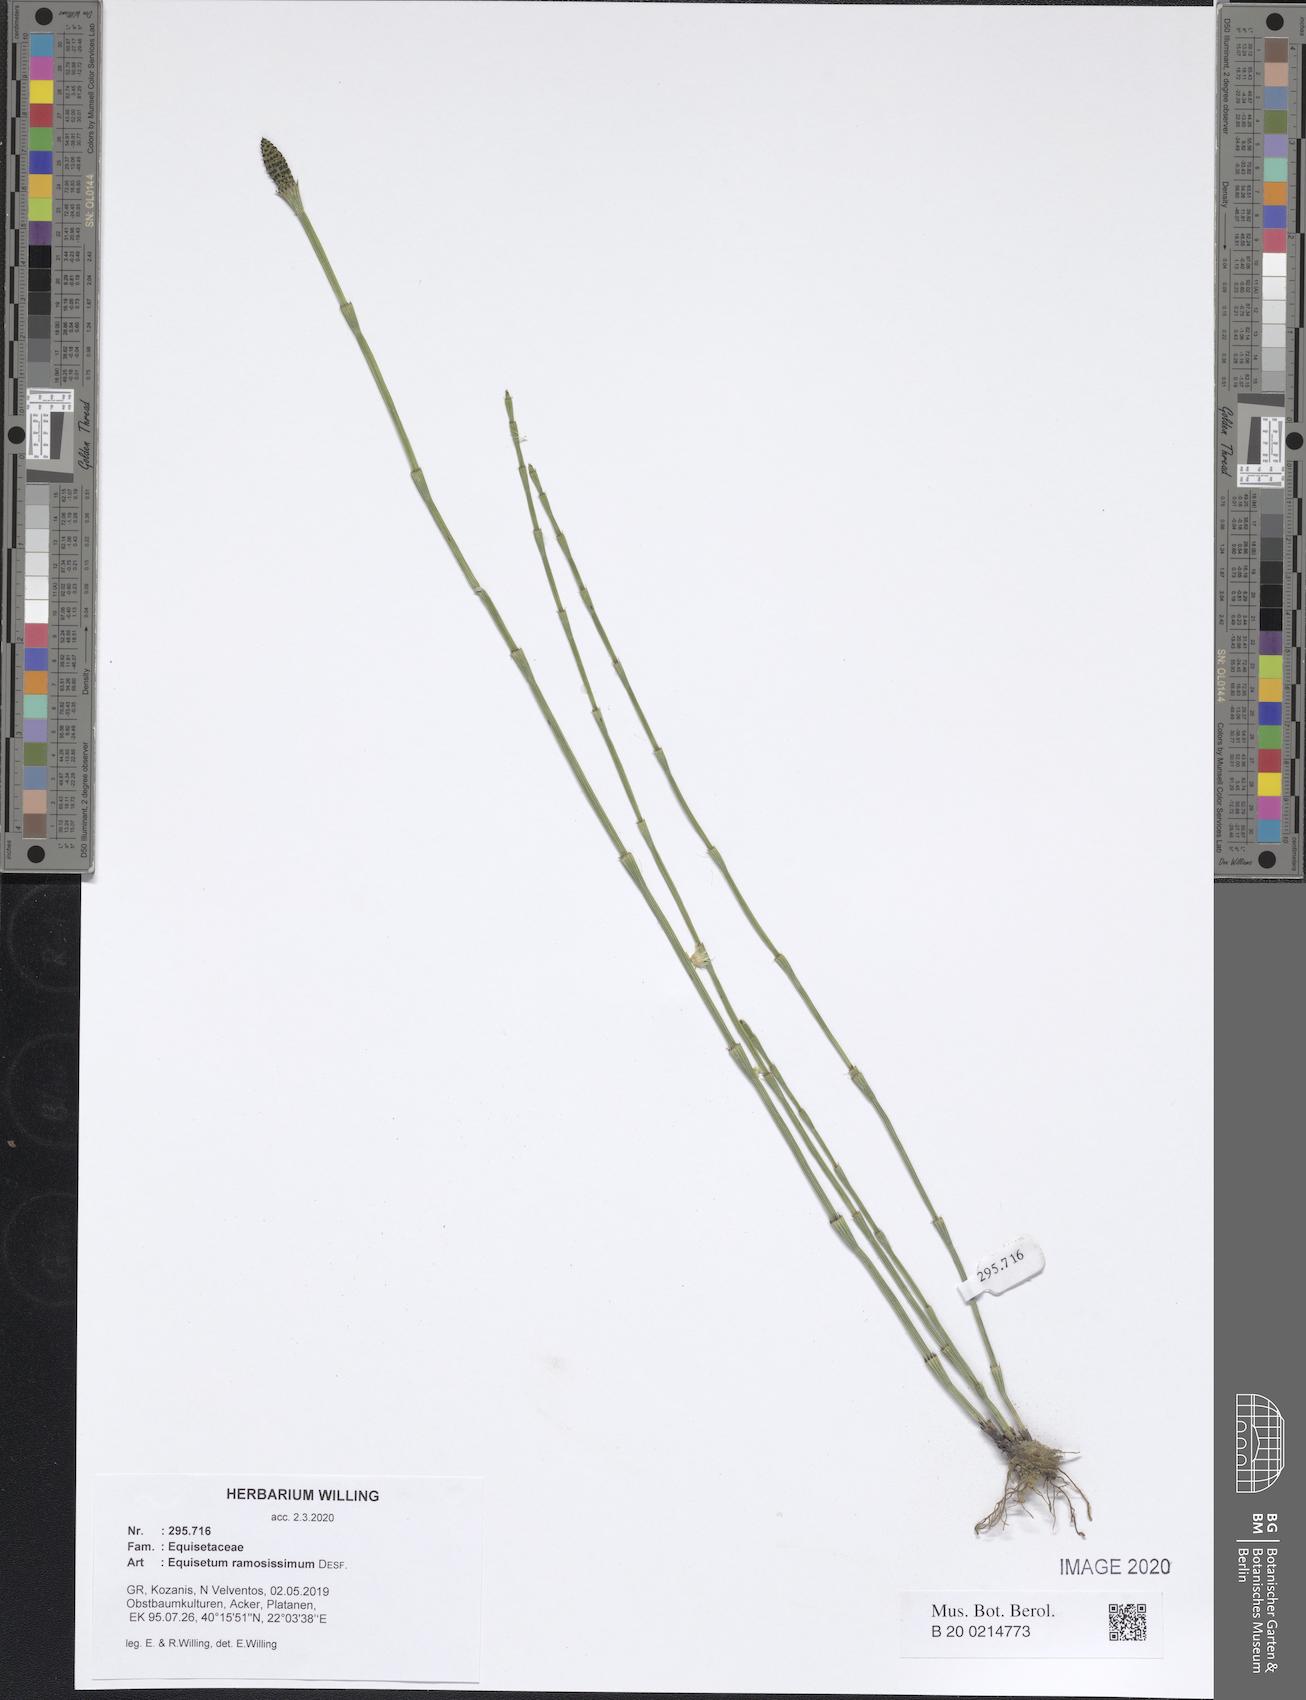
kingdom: Plantae
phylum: Tracheophyta
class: Polypodiopsida
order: Equisetales
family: Equisetaceae
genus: Equisetum
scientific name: Equisetum ramosissimum
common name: Branched horsetail
